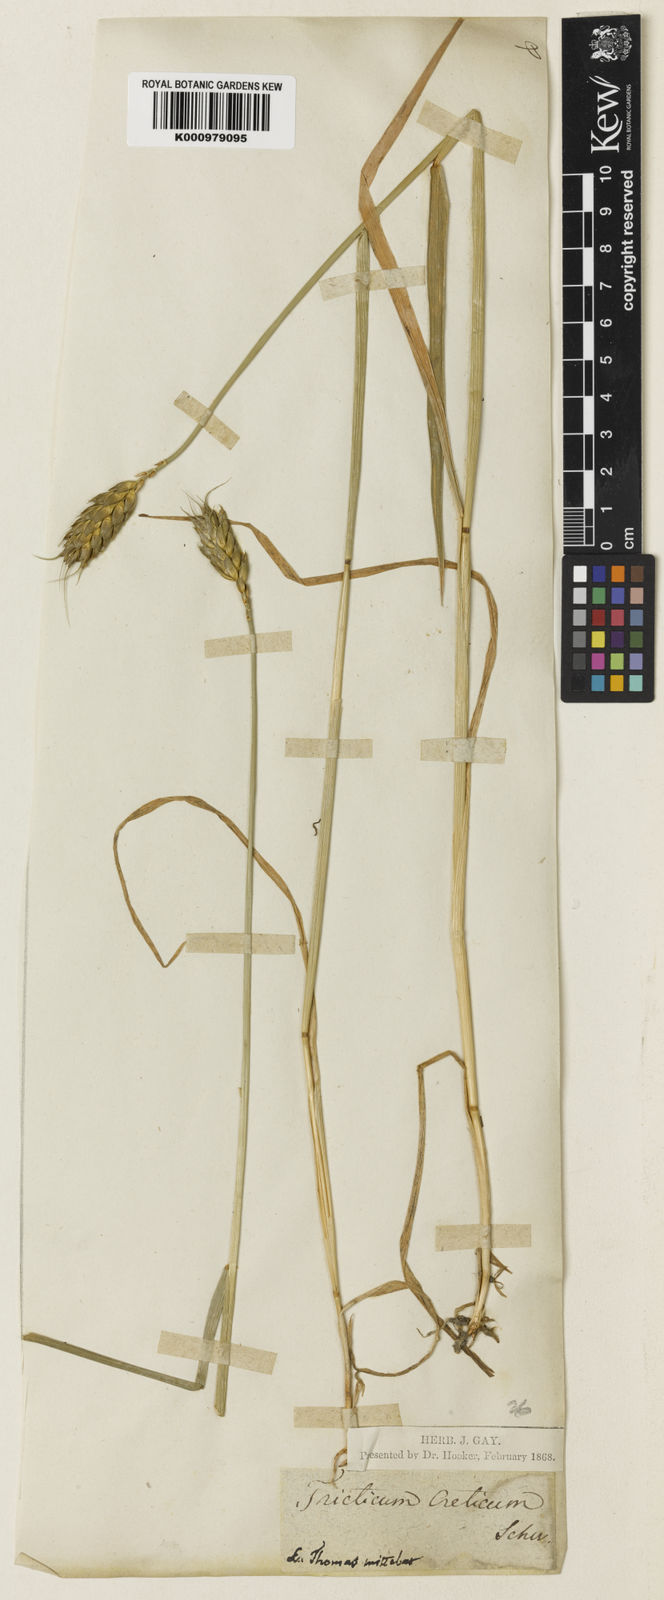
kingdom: Plantae
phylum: Tracheophyta
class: Liliopsida
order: Poales
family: Poaceae
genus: Triticum
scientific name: Triticum aestivum
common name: Common wheat
